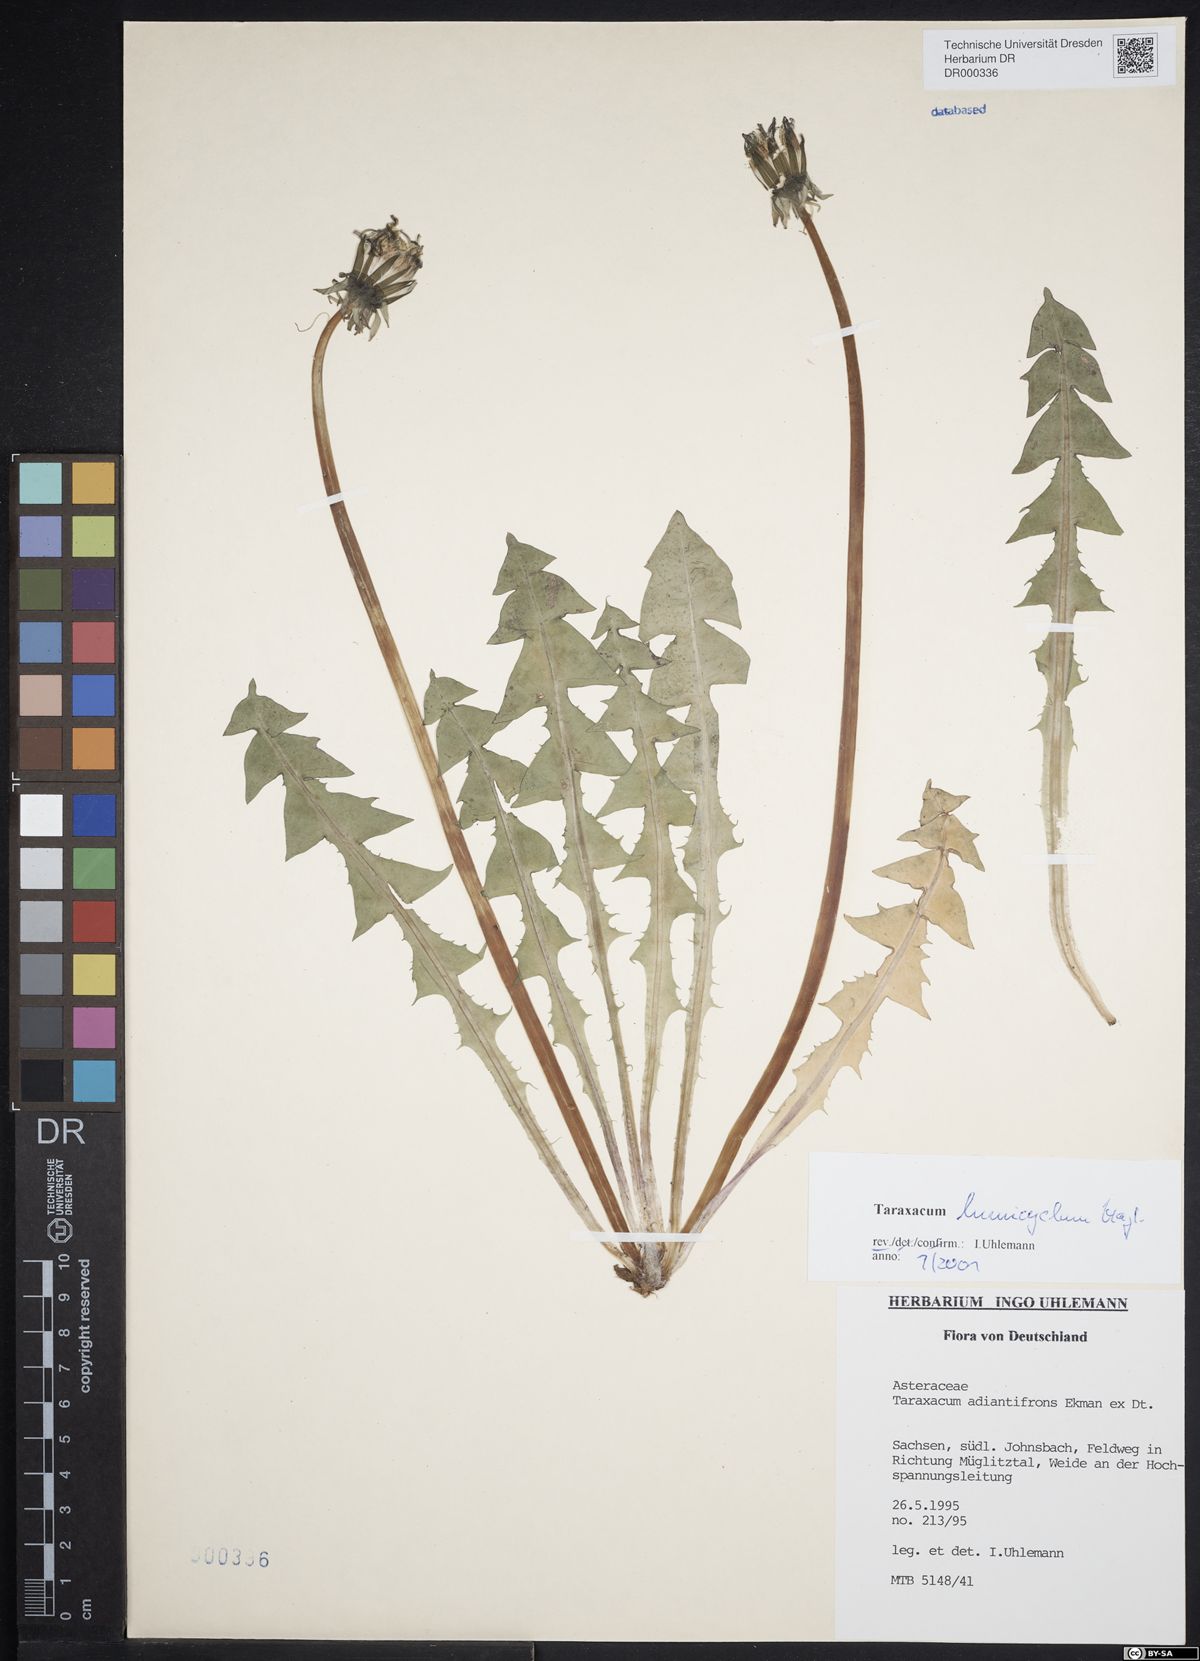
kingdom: Plantae
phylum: Tracheophyta
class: Magnoliopsida
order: Asterales
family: Asteraceae
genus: Taraxacum
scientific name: Taraxacum adiantifrons
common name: Pretty-leaved dandelion
